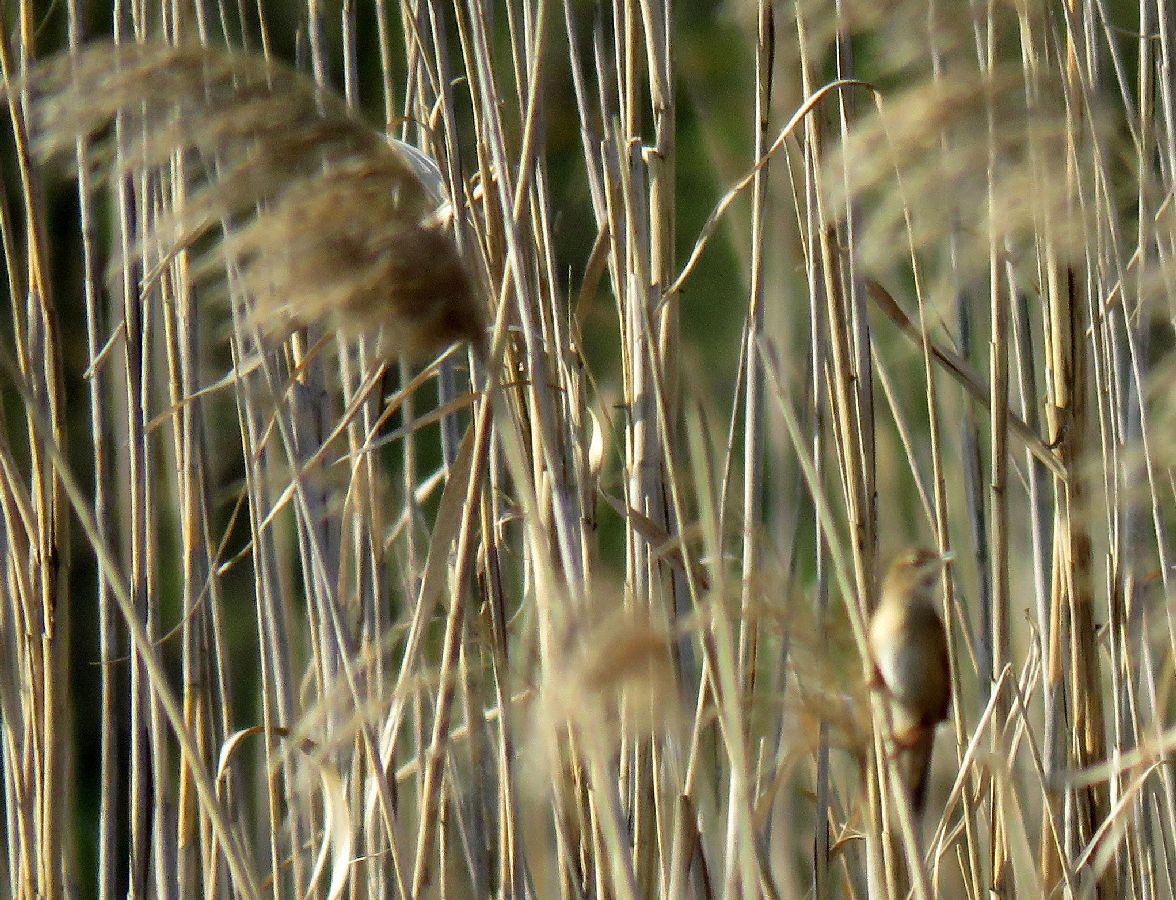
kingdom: Animalia
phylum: Chordata
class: Aves
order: Passeriformes
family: Locustellidae
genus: Locustella
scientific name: Locustella luscinioides
